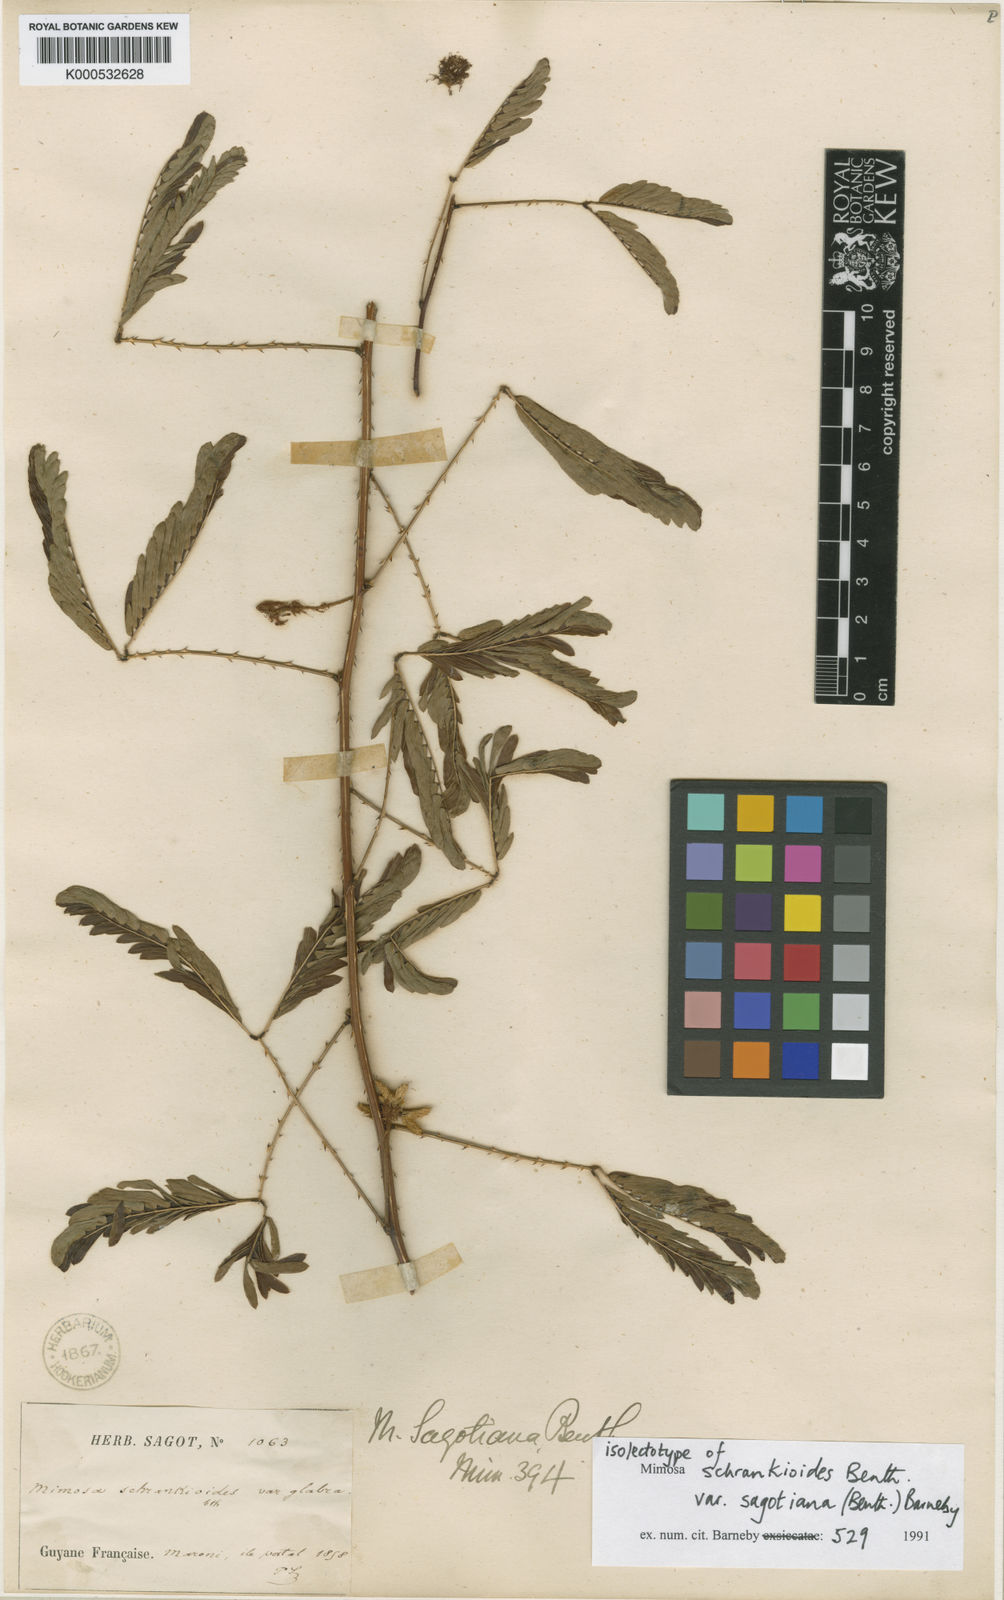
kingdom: Plantae
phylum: Tracheophyta
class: Magnoliopsida
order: Fabales
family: Fabaceae
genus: Mimosa
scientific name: Mimosa schrankioides
